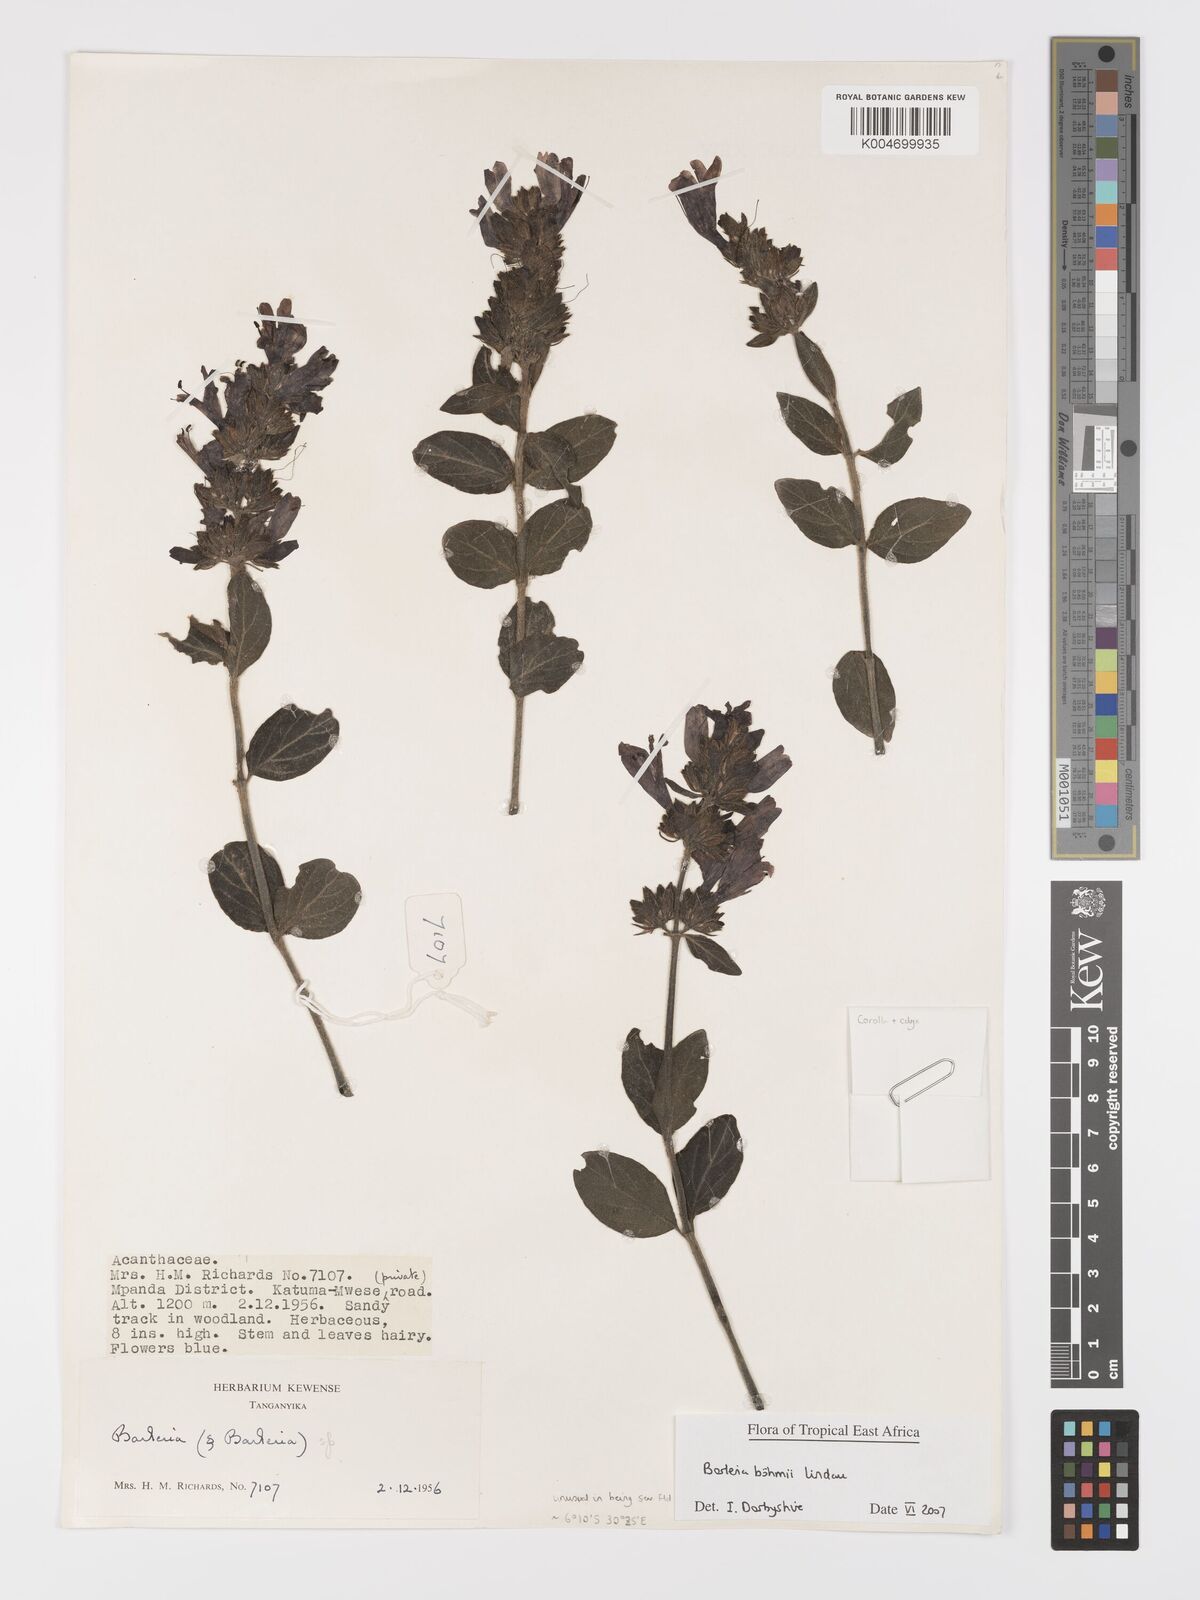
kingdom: Plantae
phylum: Tracheophyta
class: Magnoliopsida
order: Lamiales
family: Acanthaceae
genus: Barleria
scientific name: Barleria boehmii
